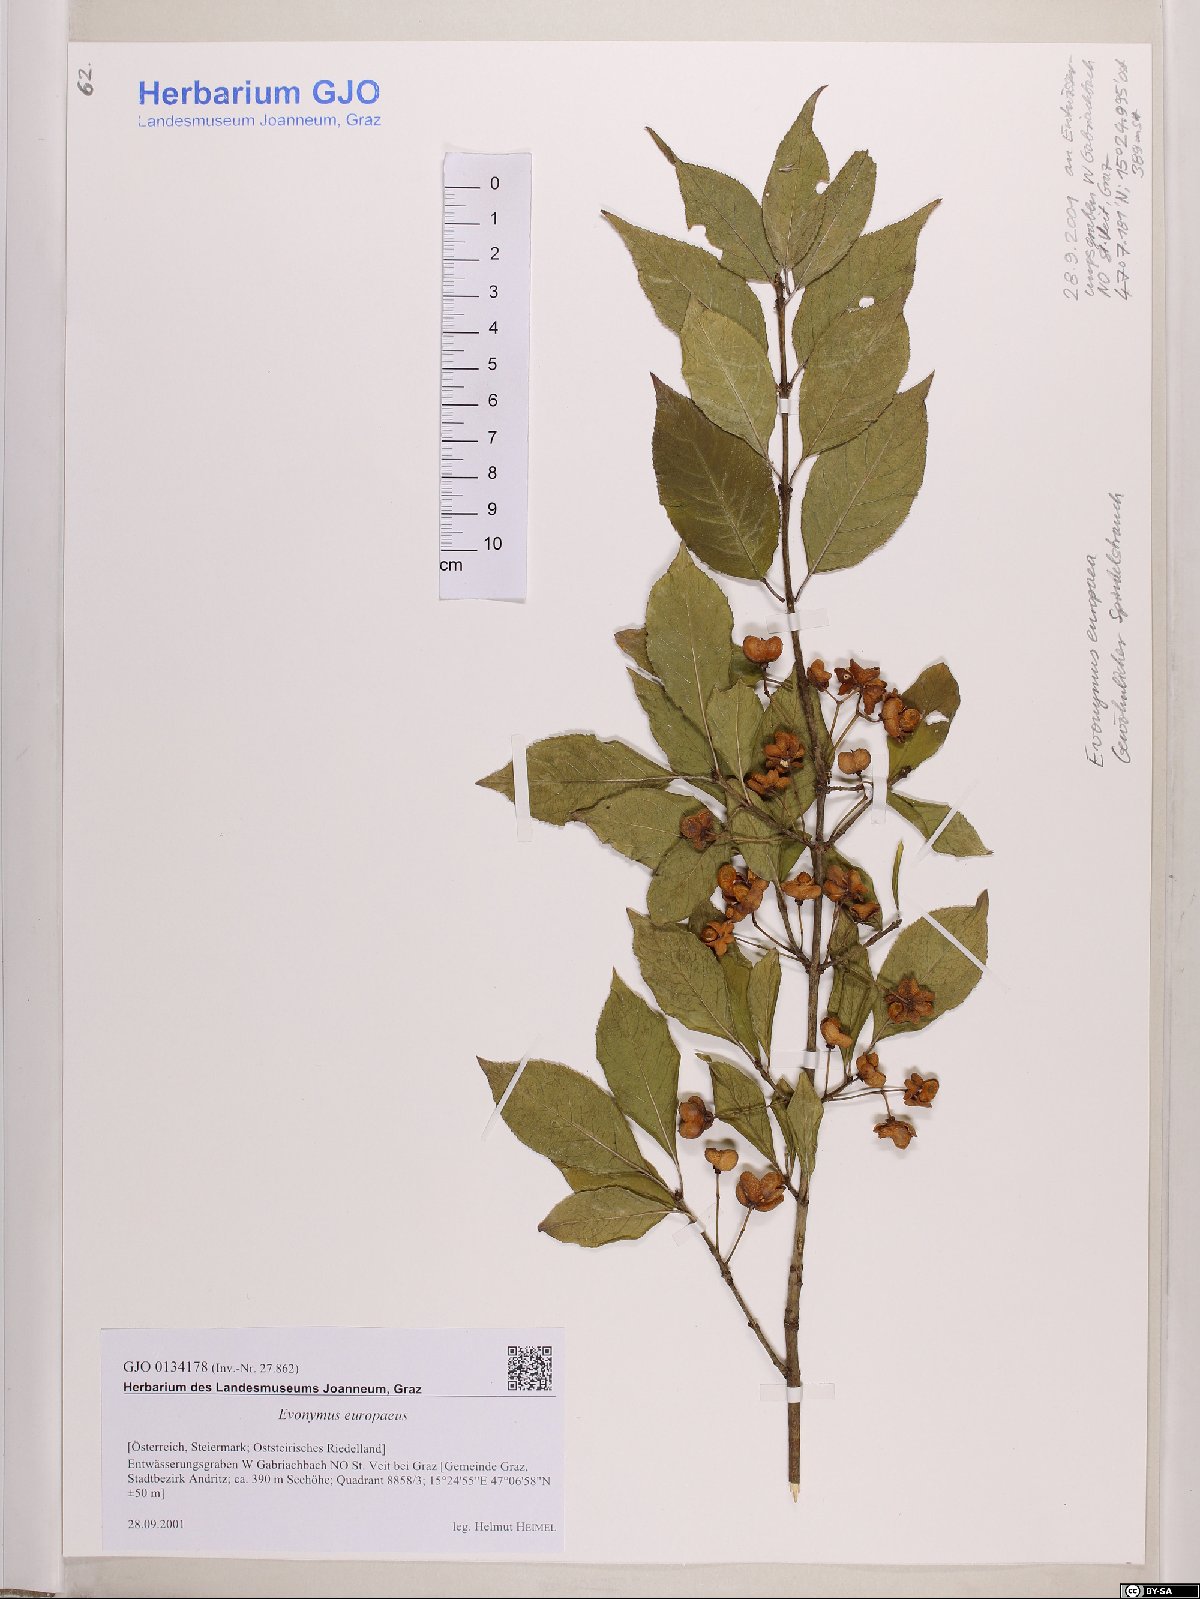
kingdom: Plantae
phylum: Tracheophyta
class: Magnoliopsida
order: Celastrales
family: Celastraceae
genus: Euonymus
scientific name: Euonymus europaeus
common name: Spindle
